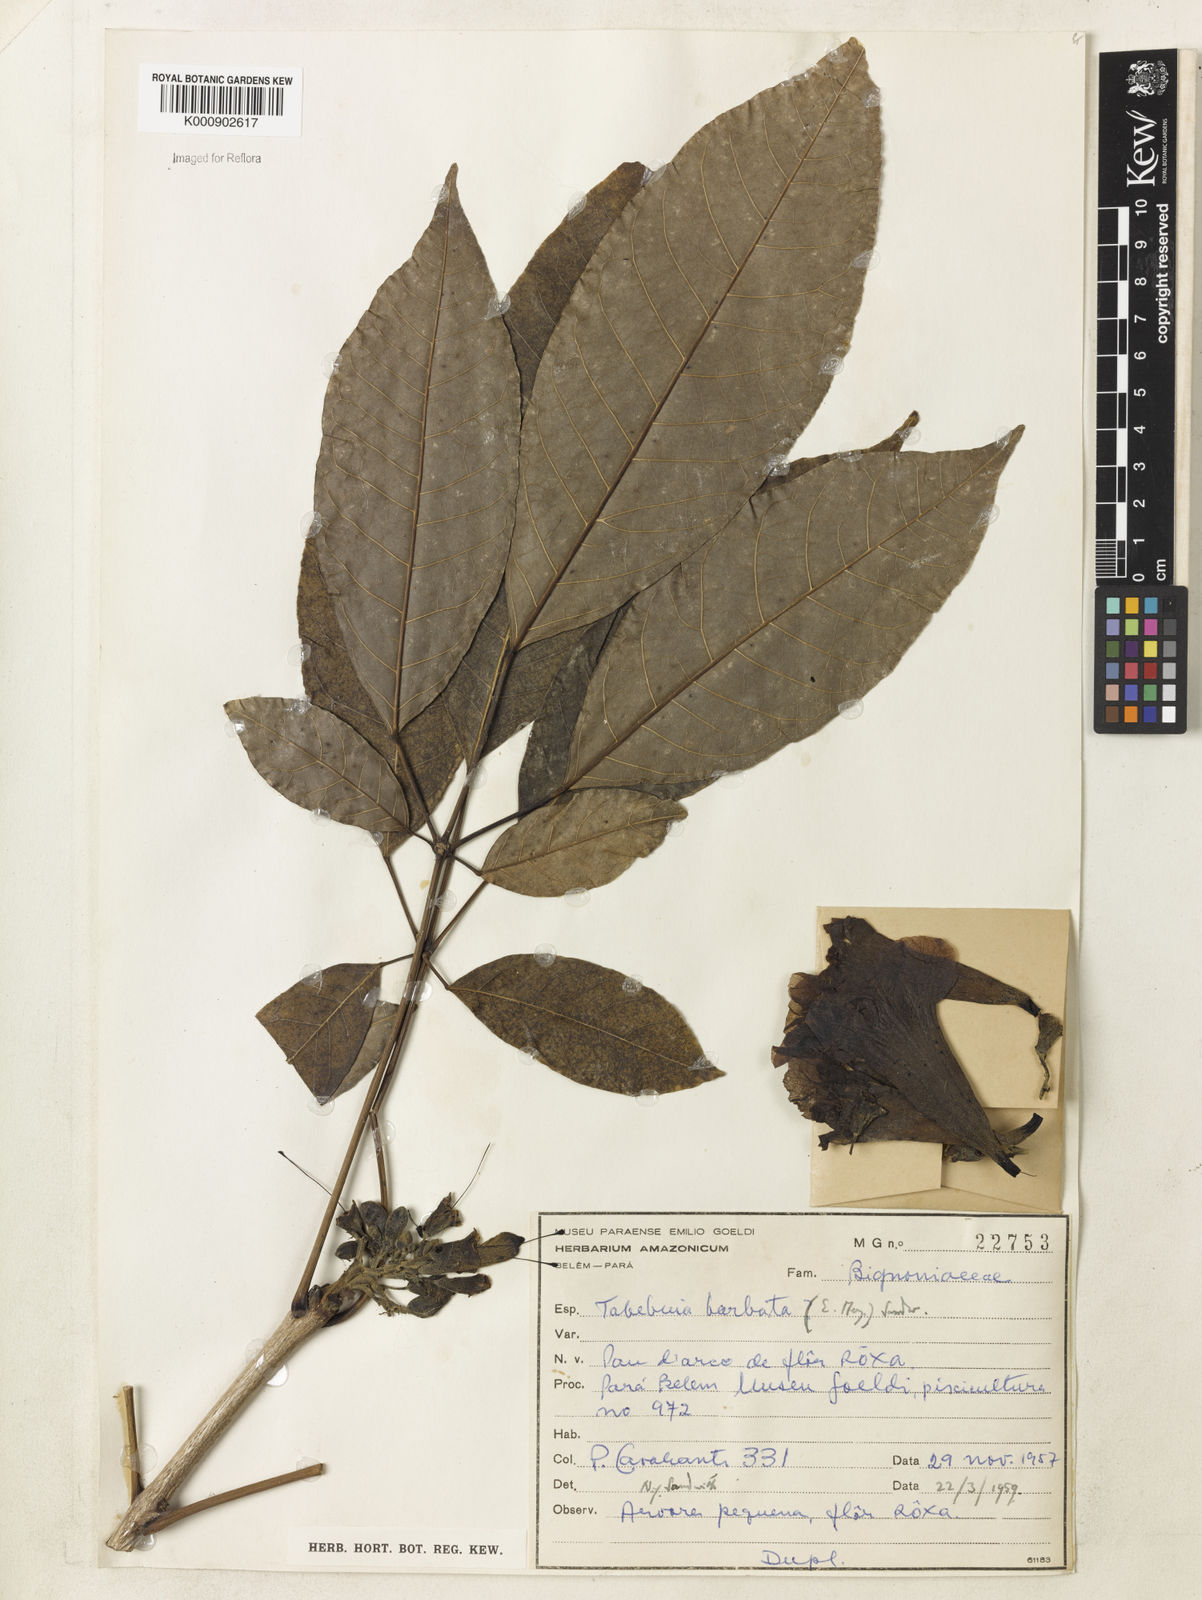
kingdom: Plantae
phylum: Tracheophyta
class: Magnoliopsida
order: Lamiales
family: Bignoniaceae
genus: Handroanthus
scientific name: Handroanthus barbatus
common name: Trumpet trees
